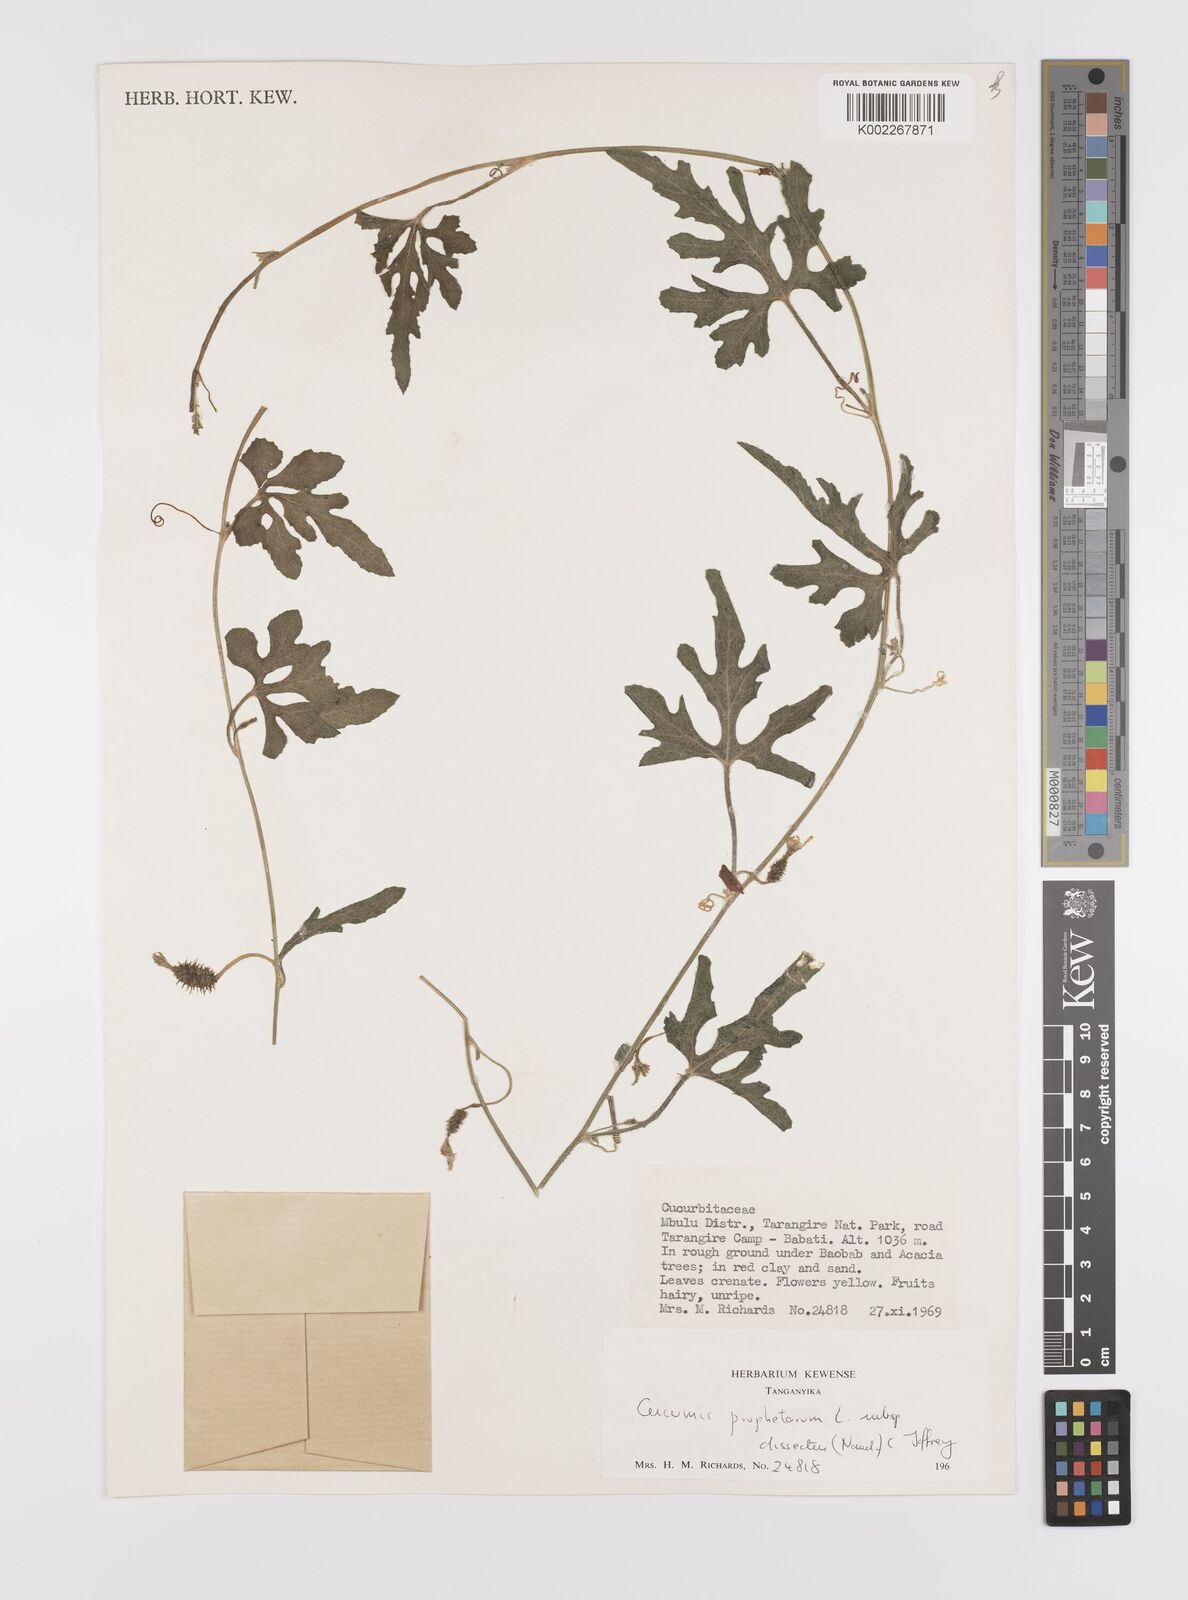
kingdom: Plantae
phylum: Tracheophyta
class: Magnoliopsida
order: Cucurbitales
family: Cucurbitaceae
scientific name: Cucurbitaceae
